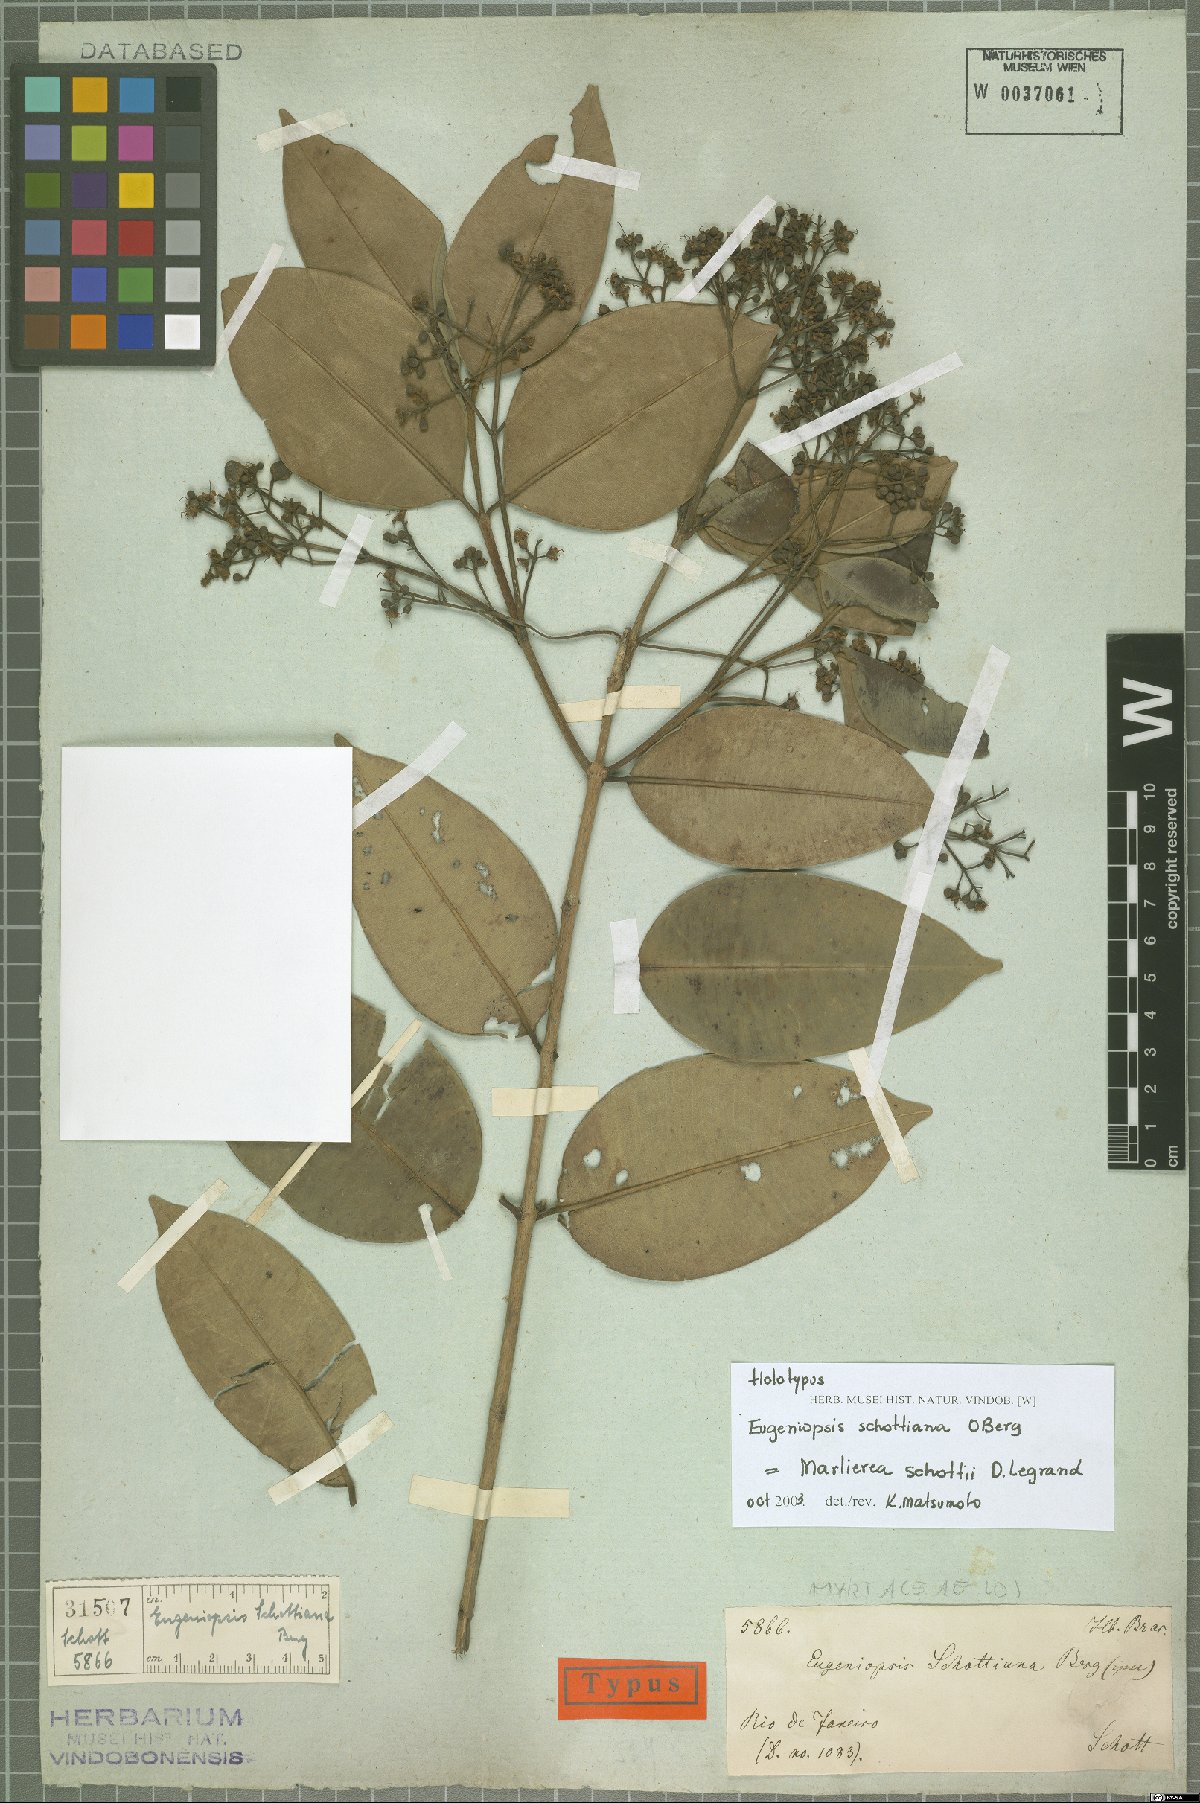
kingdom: Plantae
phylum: Tracheophyta
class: Magnoliopsida
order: Myrtales
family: Myrtaceae
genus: Myrcia
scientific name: Myrcia schottii
